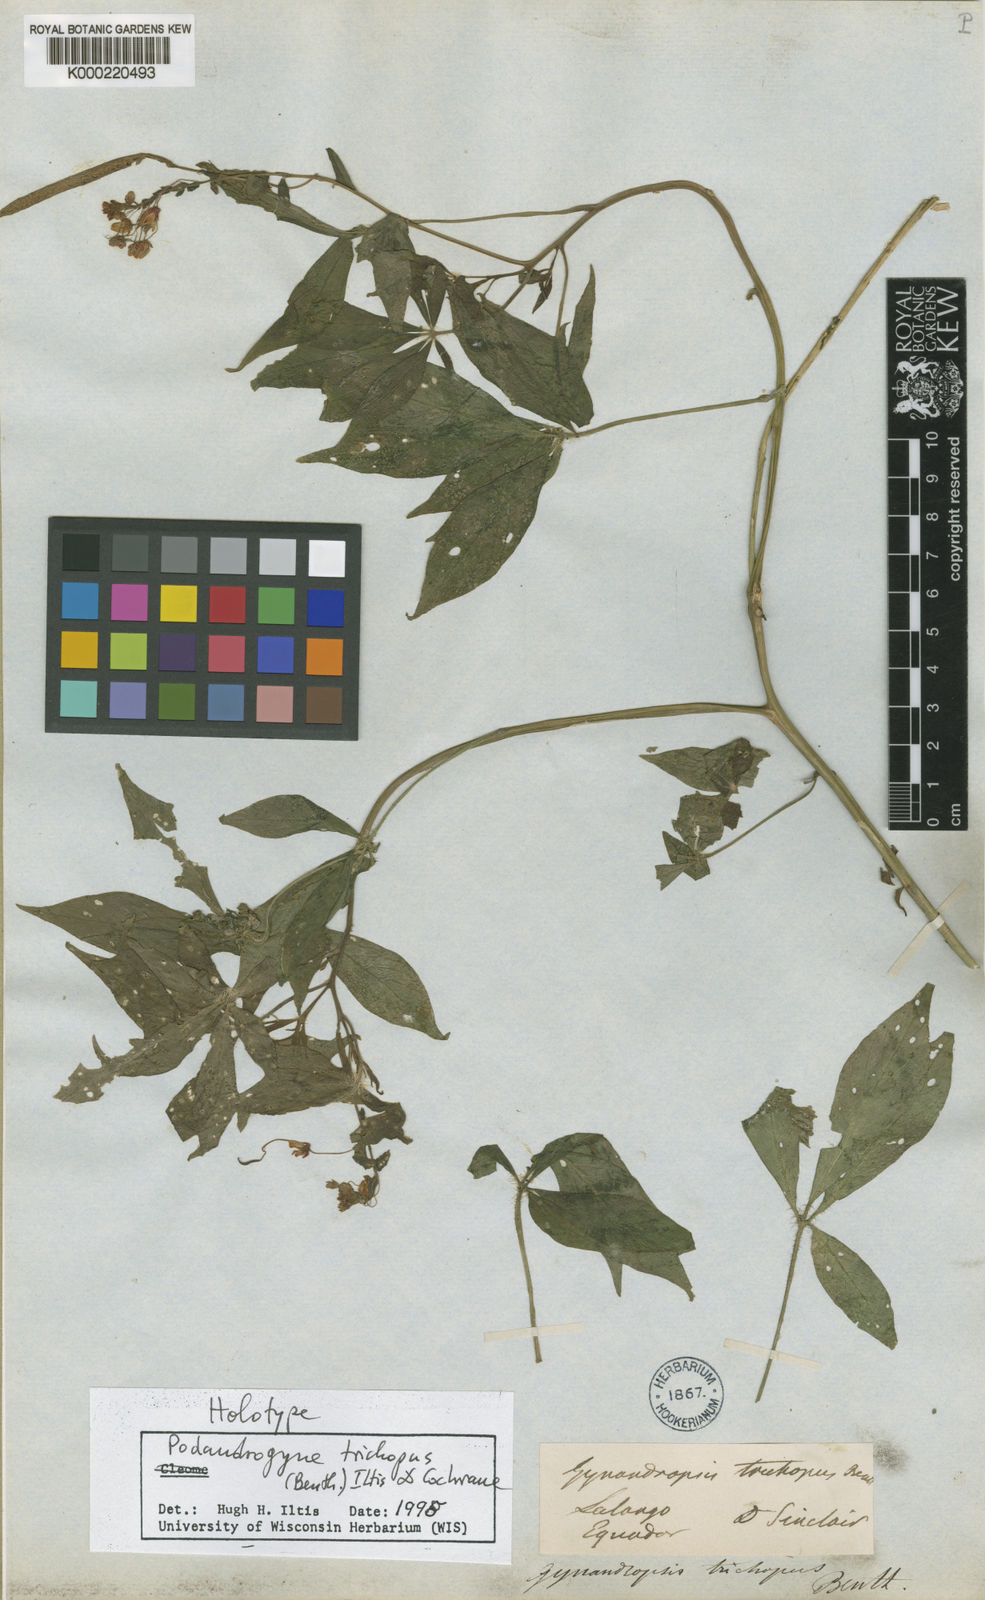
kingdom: Plantae
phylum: Tracheophyta
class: Magnoliopsida
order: Brassicales
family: Cleomaceae
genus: Podandrogyne
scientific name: Podandrogyne trichopus
